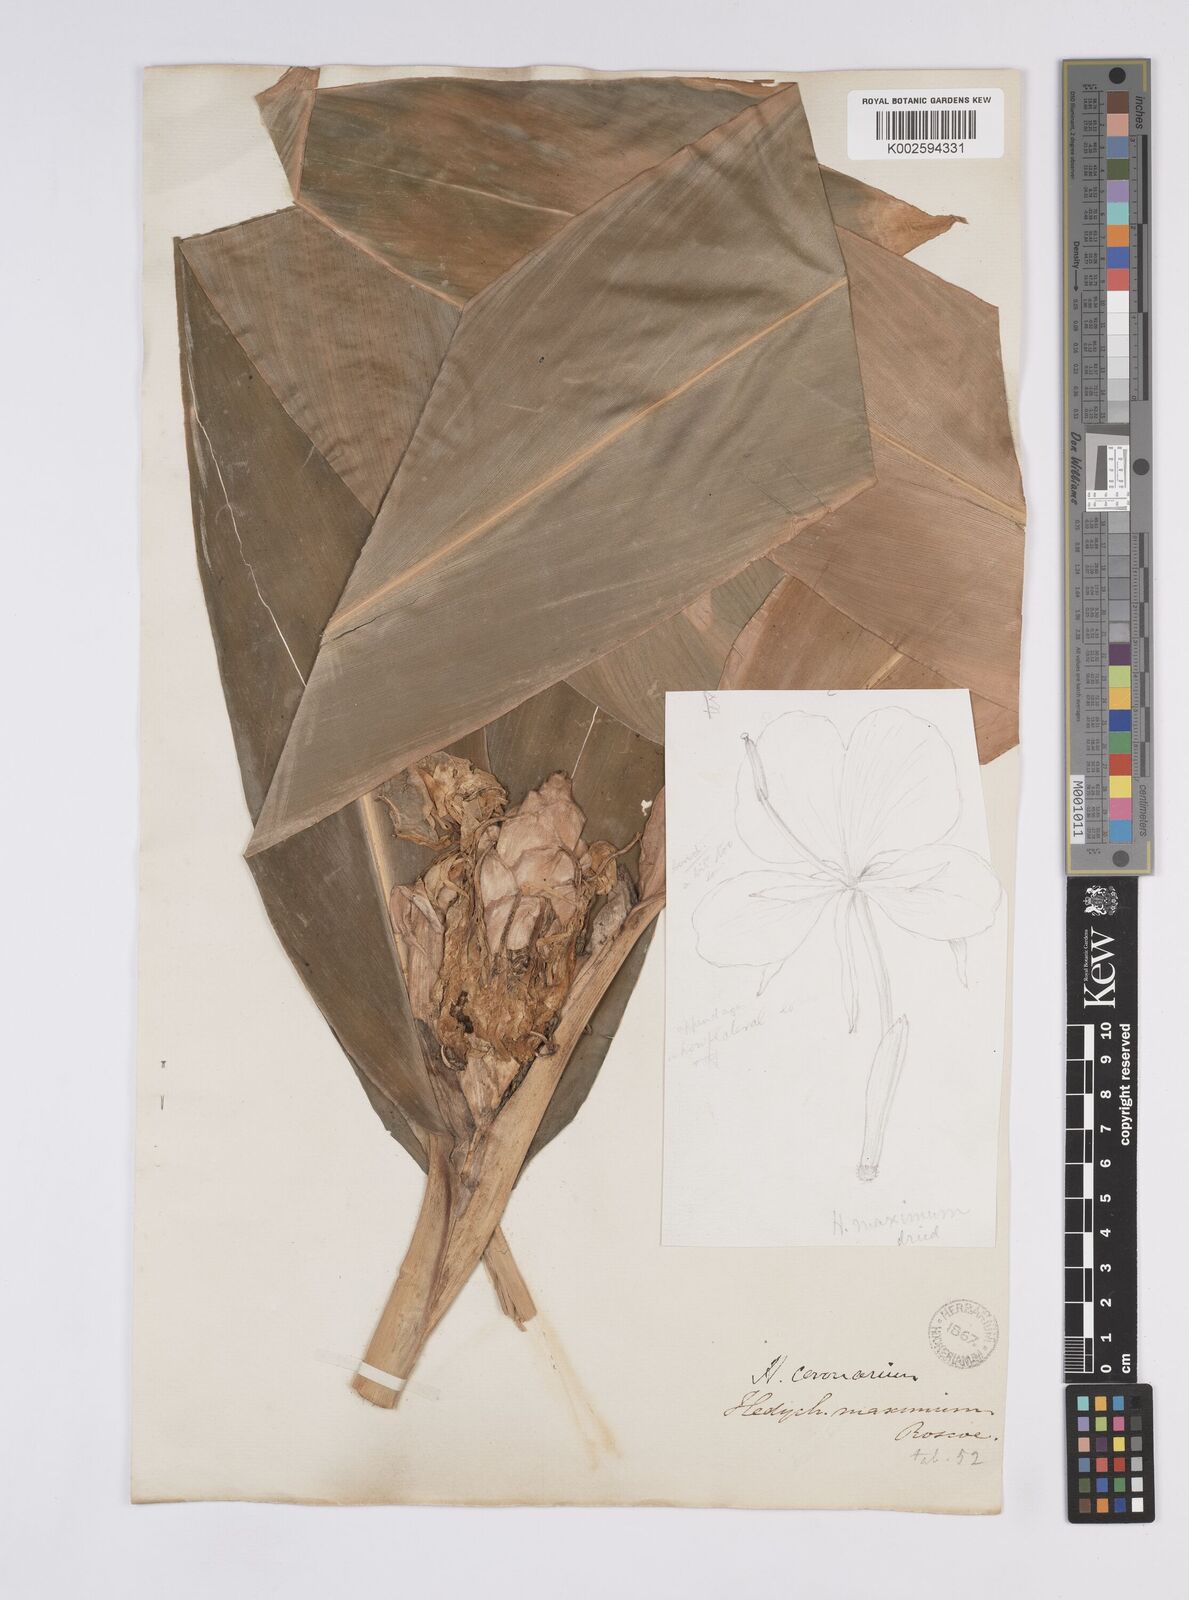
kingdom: Plantae
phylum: Tracheophyta
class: Liliopsida
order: Zingiberales
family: Zingiberaceae
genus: Hedychium
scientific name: Hedychium coronarium
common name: White garland-lily
